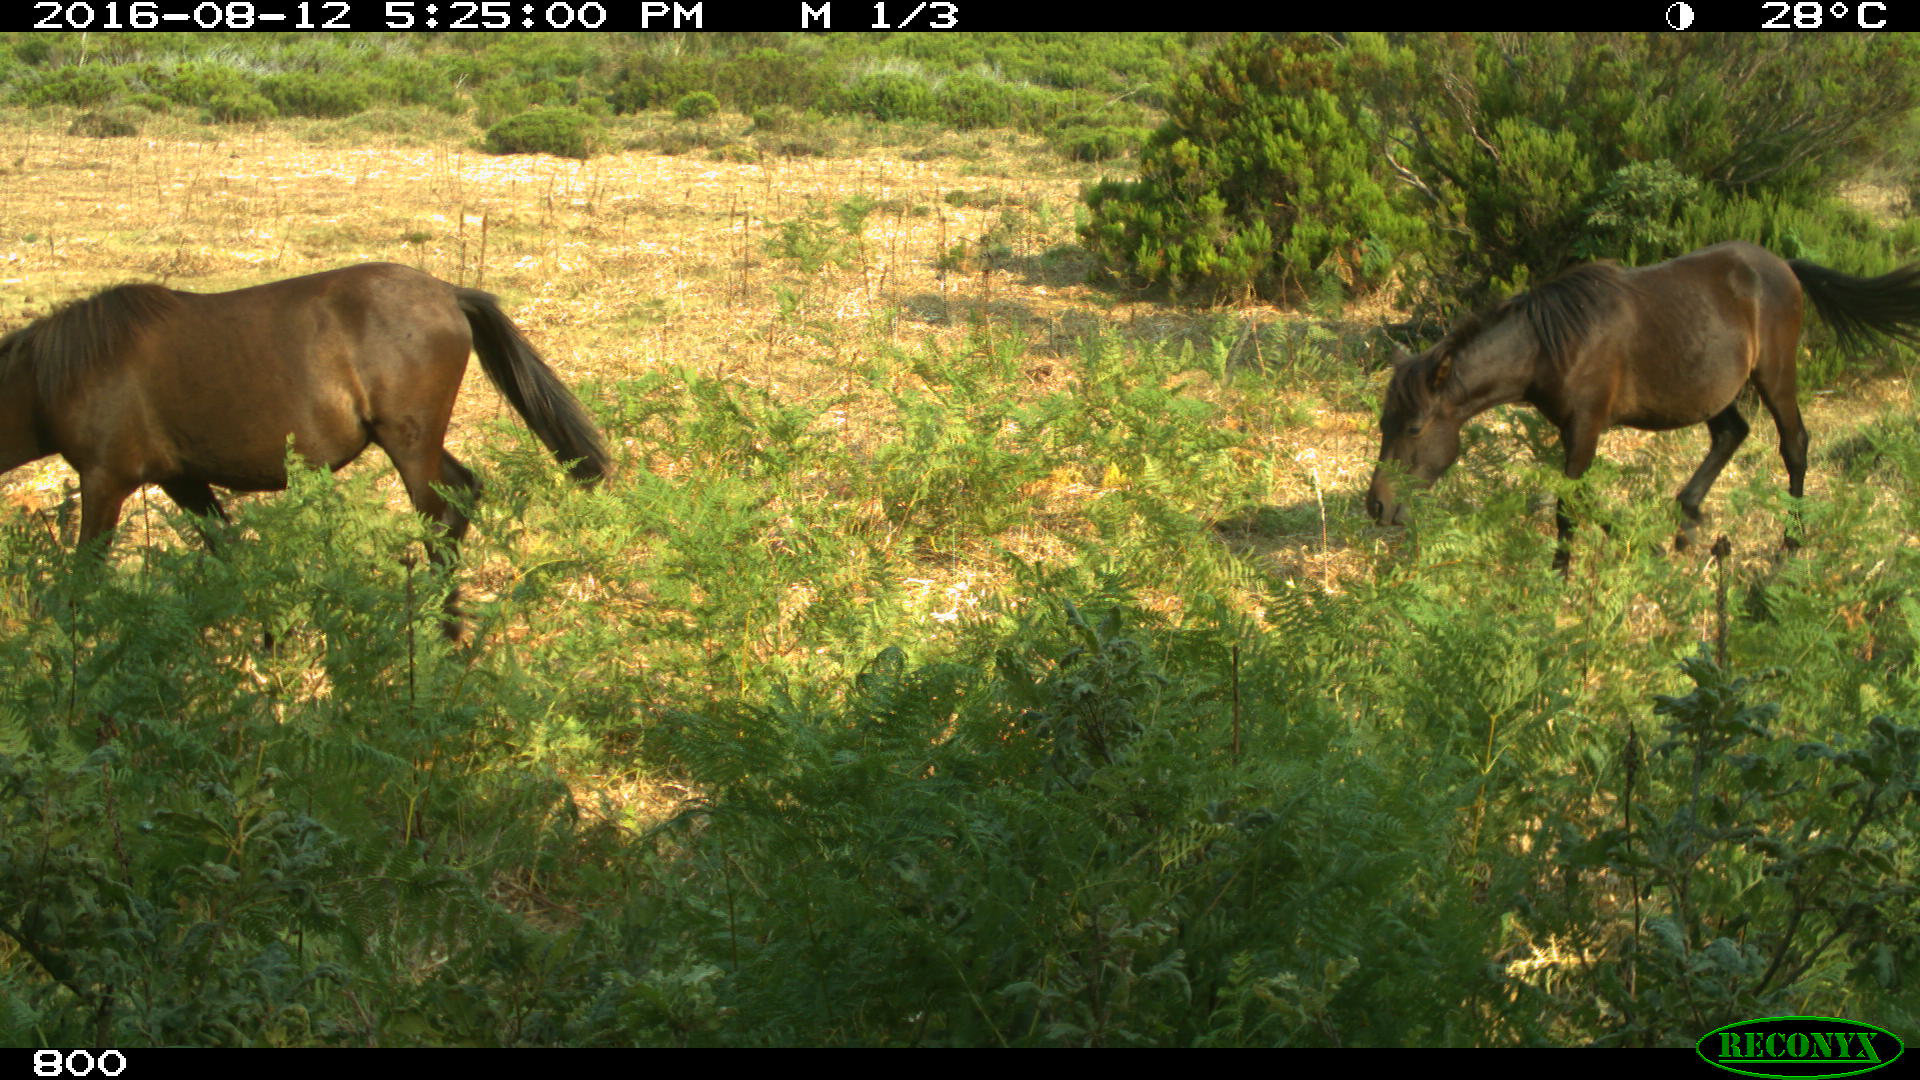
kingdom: Animalia
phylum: Chordata
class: Mammalia
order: Perissodactyla
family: Equidae
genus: Equus
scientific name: Equus caballus
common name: Horse
